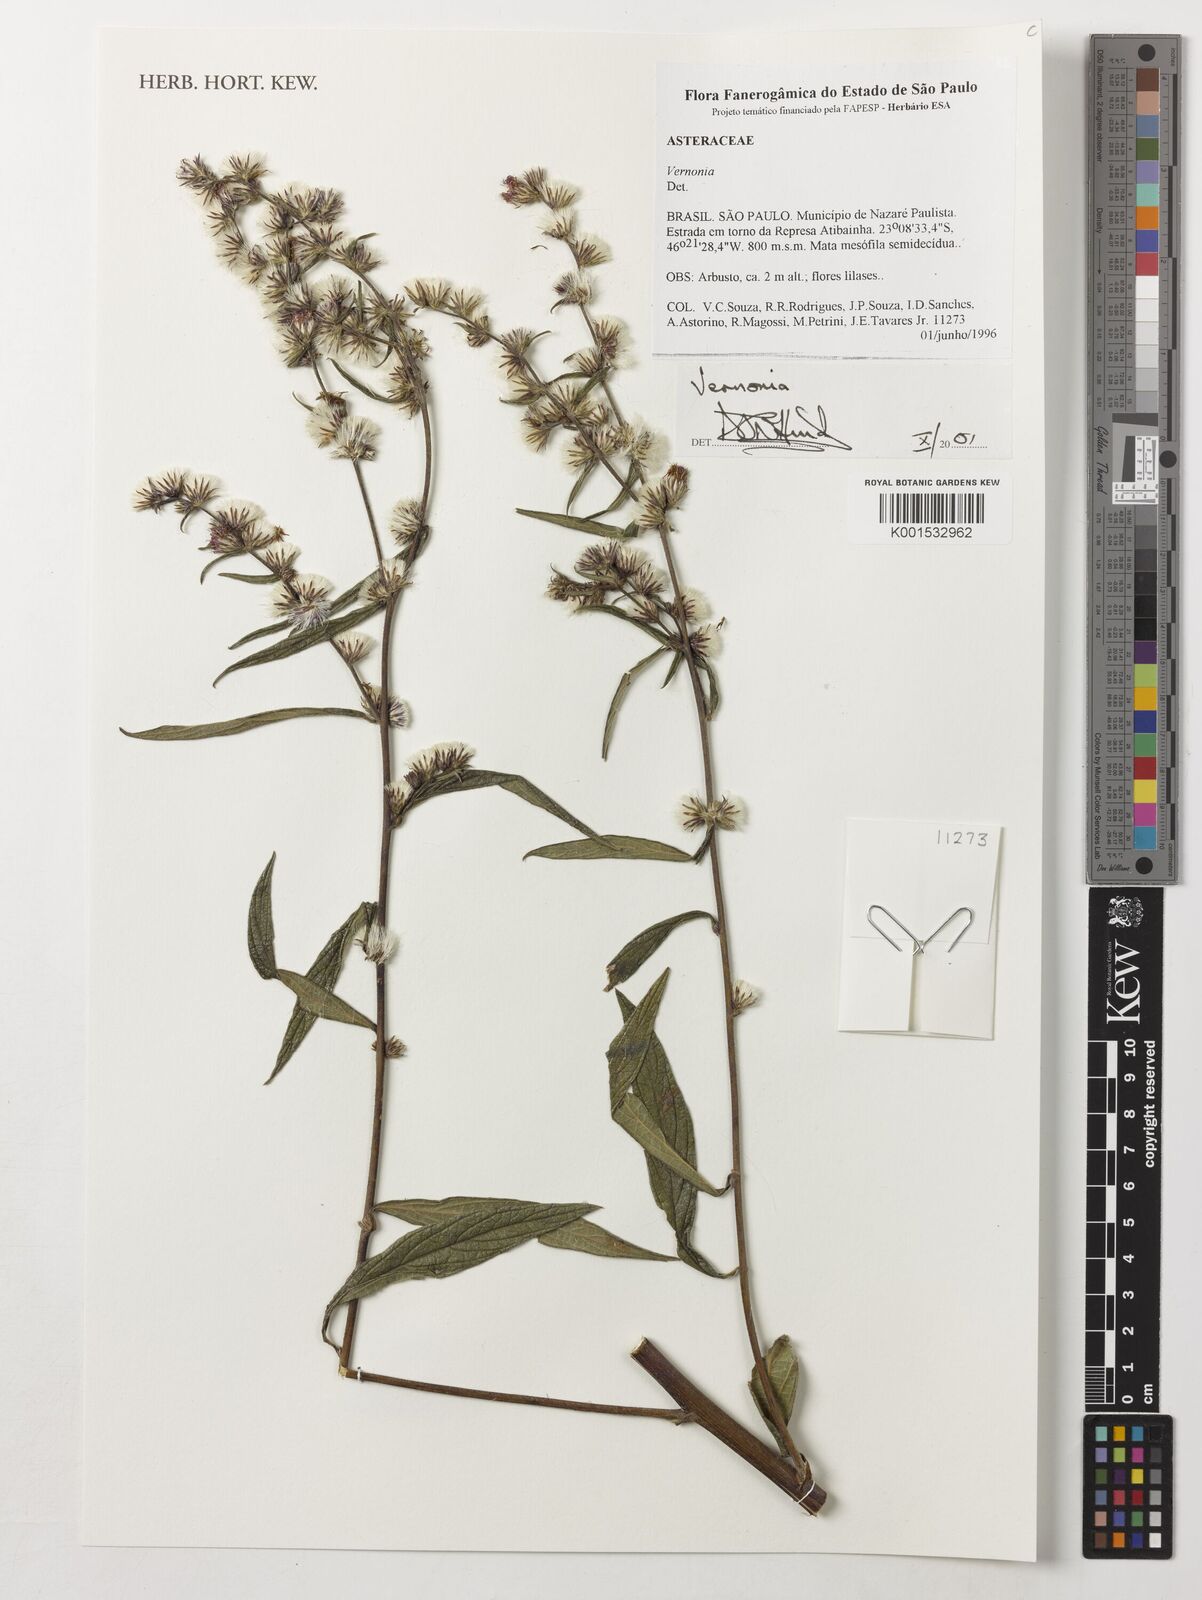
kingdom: Plantae
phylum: Tracheophyta
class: Magnoliopsida
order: Asterales
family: Asteraceae
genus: Vernonia
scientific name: Vernonia
